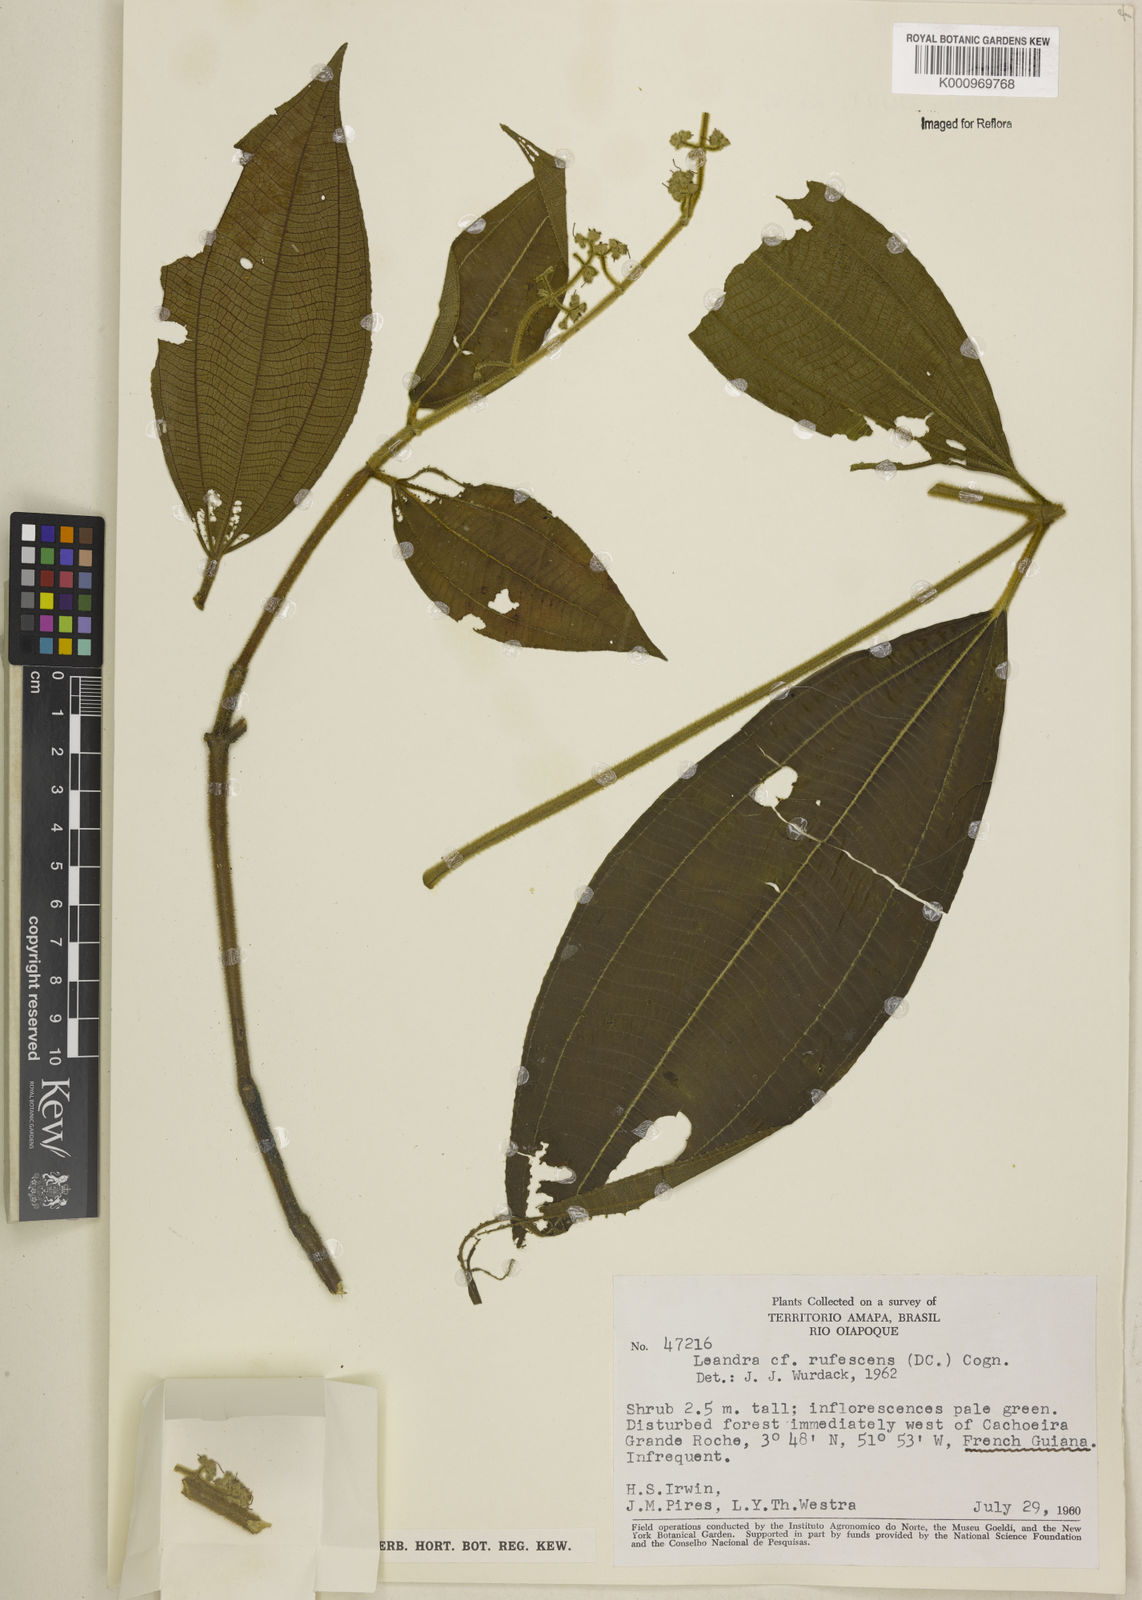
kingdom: Plantae
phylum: Tracheophyta
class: Magnoliopsida
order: Myrtales
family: Melastomataceae
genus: Miconia
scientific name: Miconia asperiuscula
